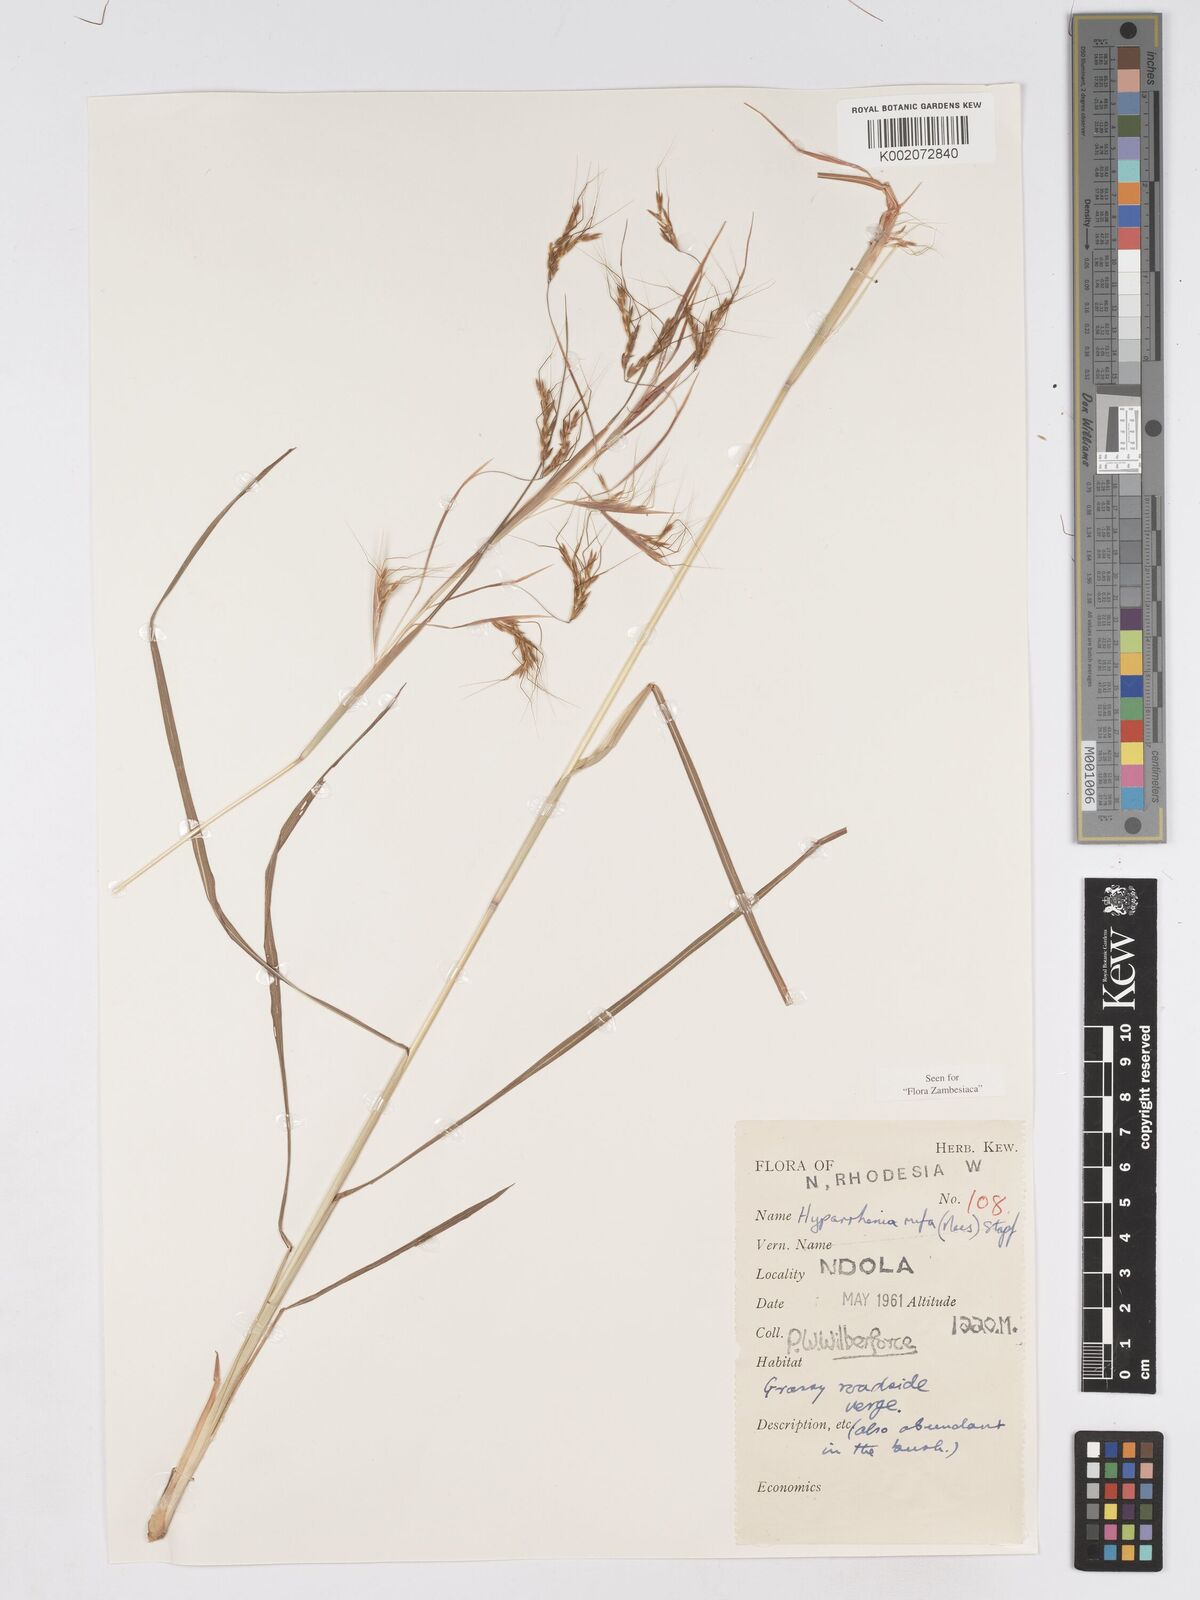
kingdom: Plantae
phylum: Tracheophyta
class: Liliopsida
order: Poales
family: Poaceae
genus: Hyparrhenia
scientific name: Hyparrhenia rufa
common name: Jaraguagrass
